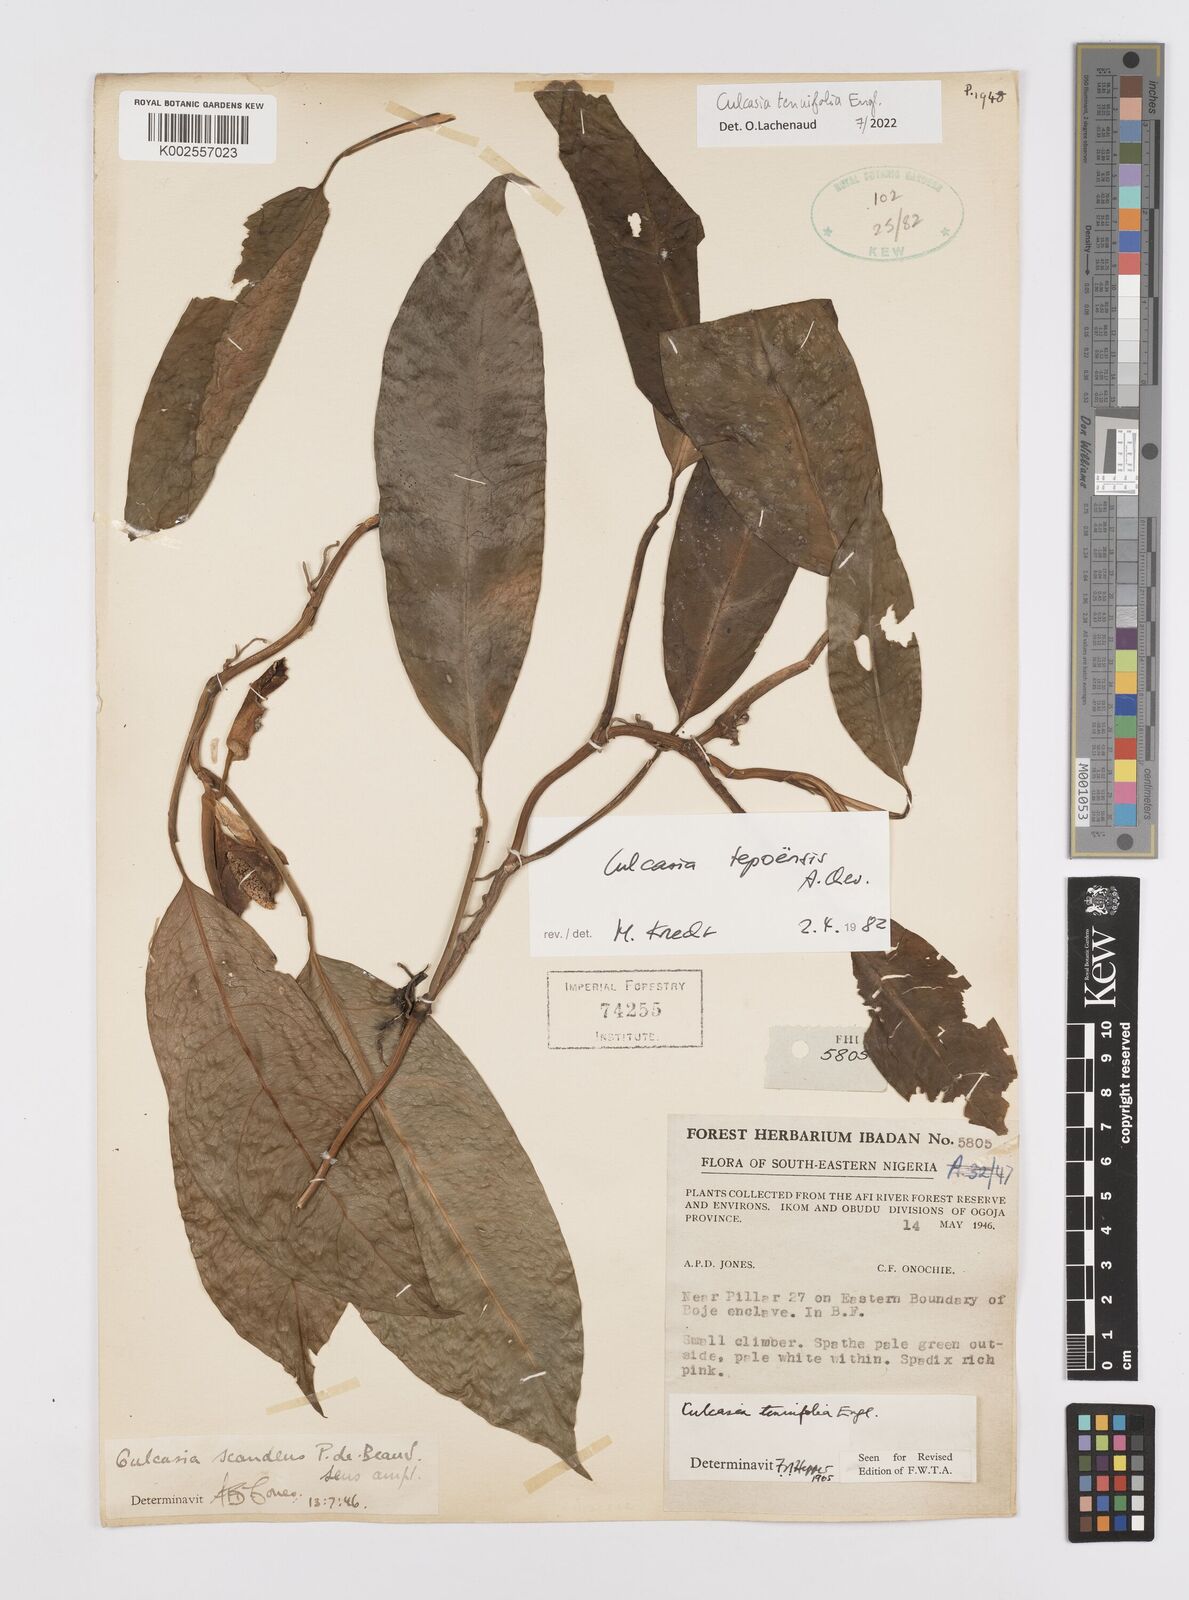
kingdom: Plantae
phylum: Tracheophyta
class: Liliopsida
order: Alismatales
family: Araceae
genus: Culcasia
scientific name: Culcasia tenuifolia
